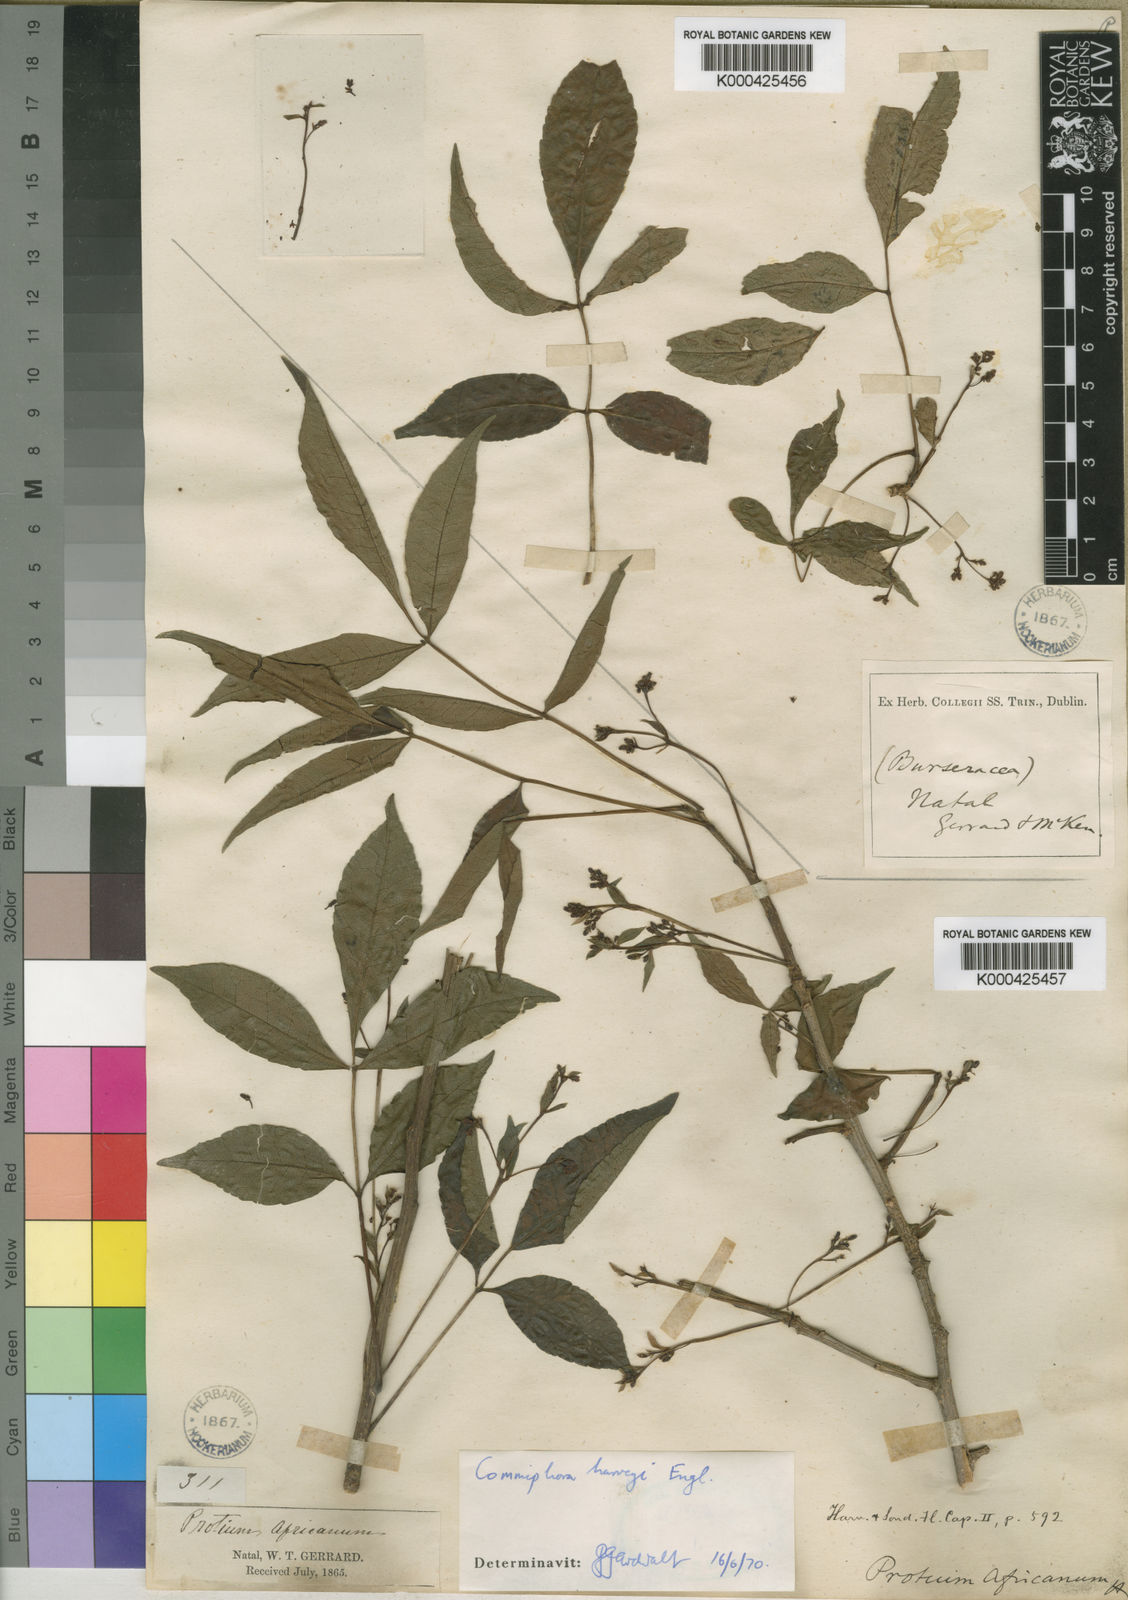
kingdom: Plantae
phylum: Tracheophyta
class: Magnoliopsida
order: Sapindales
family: Burseraceae
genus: Commiphora
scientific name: Commiphora harveyi
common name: Copper-stem corkwood
